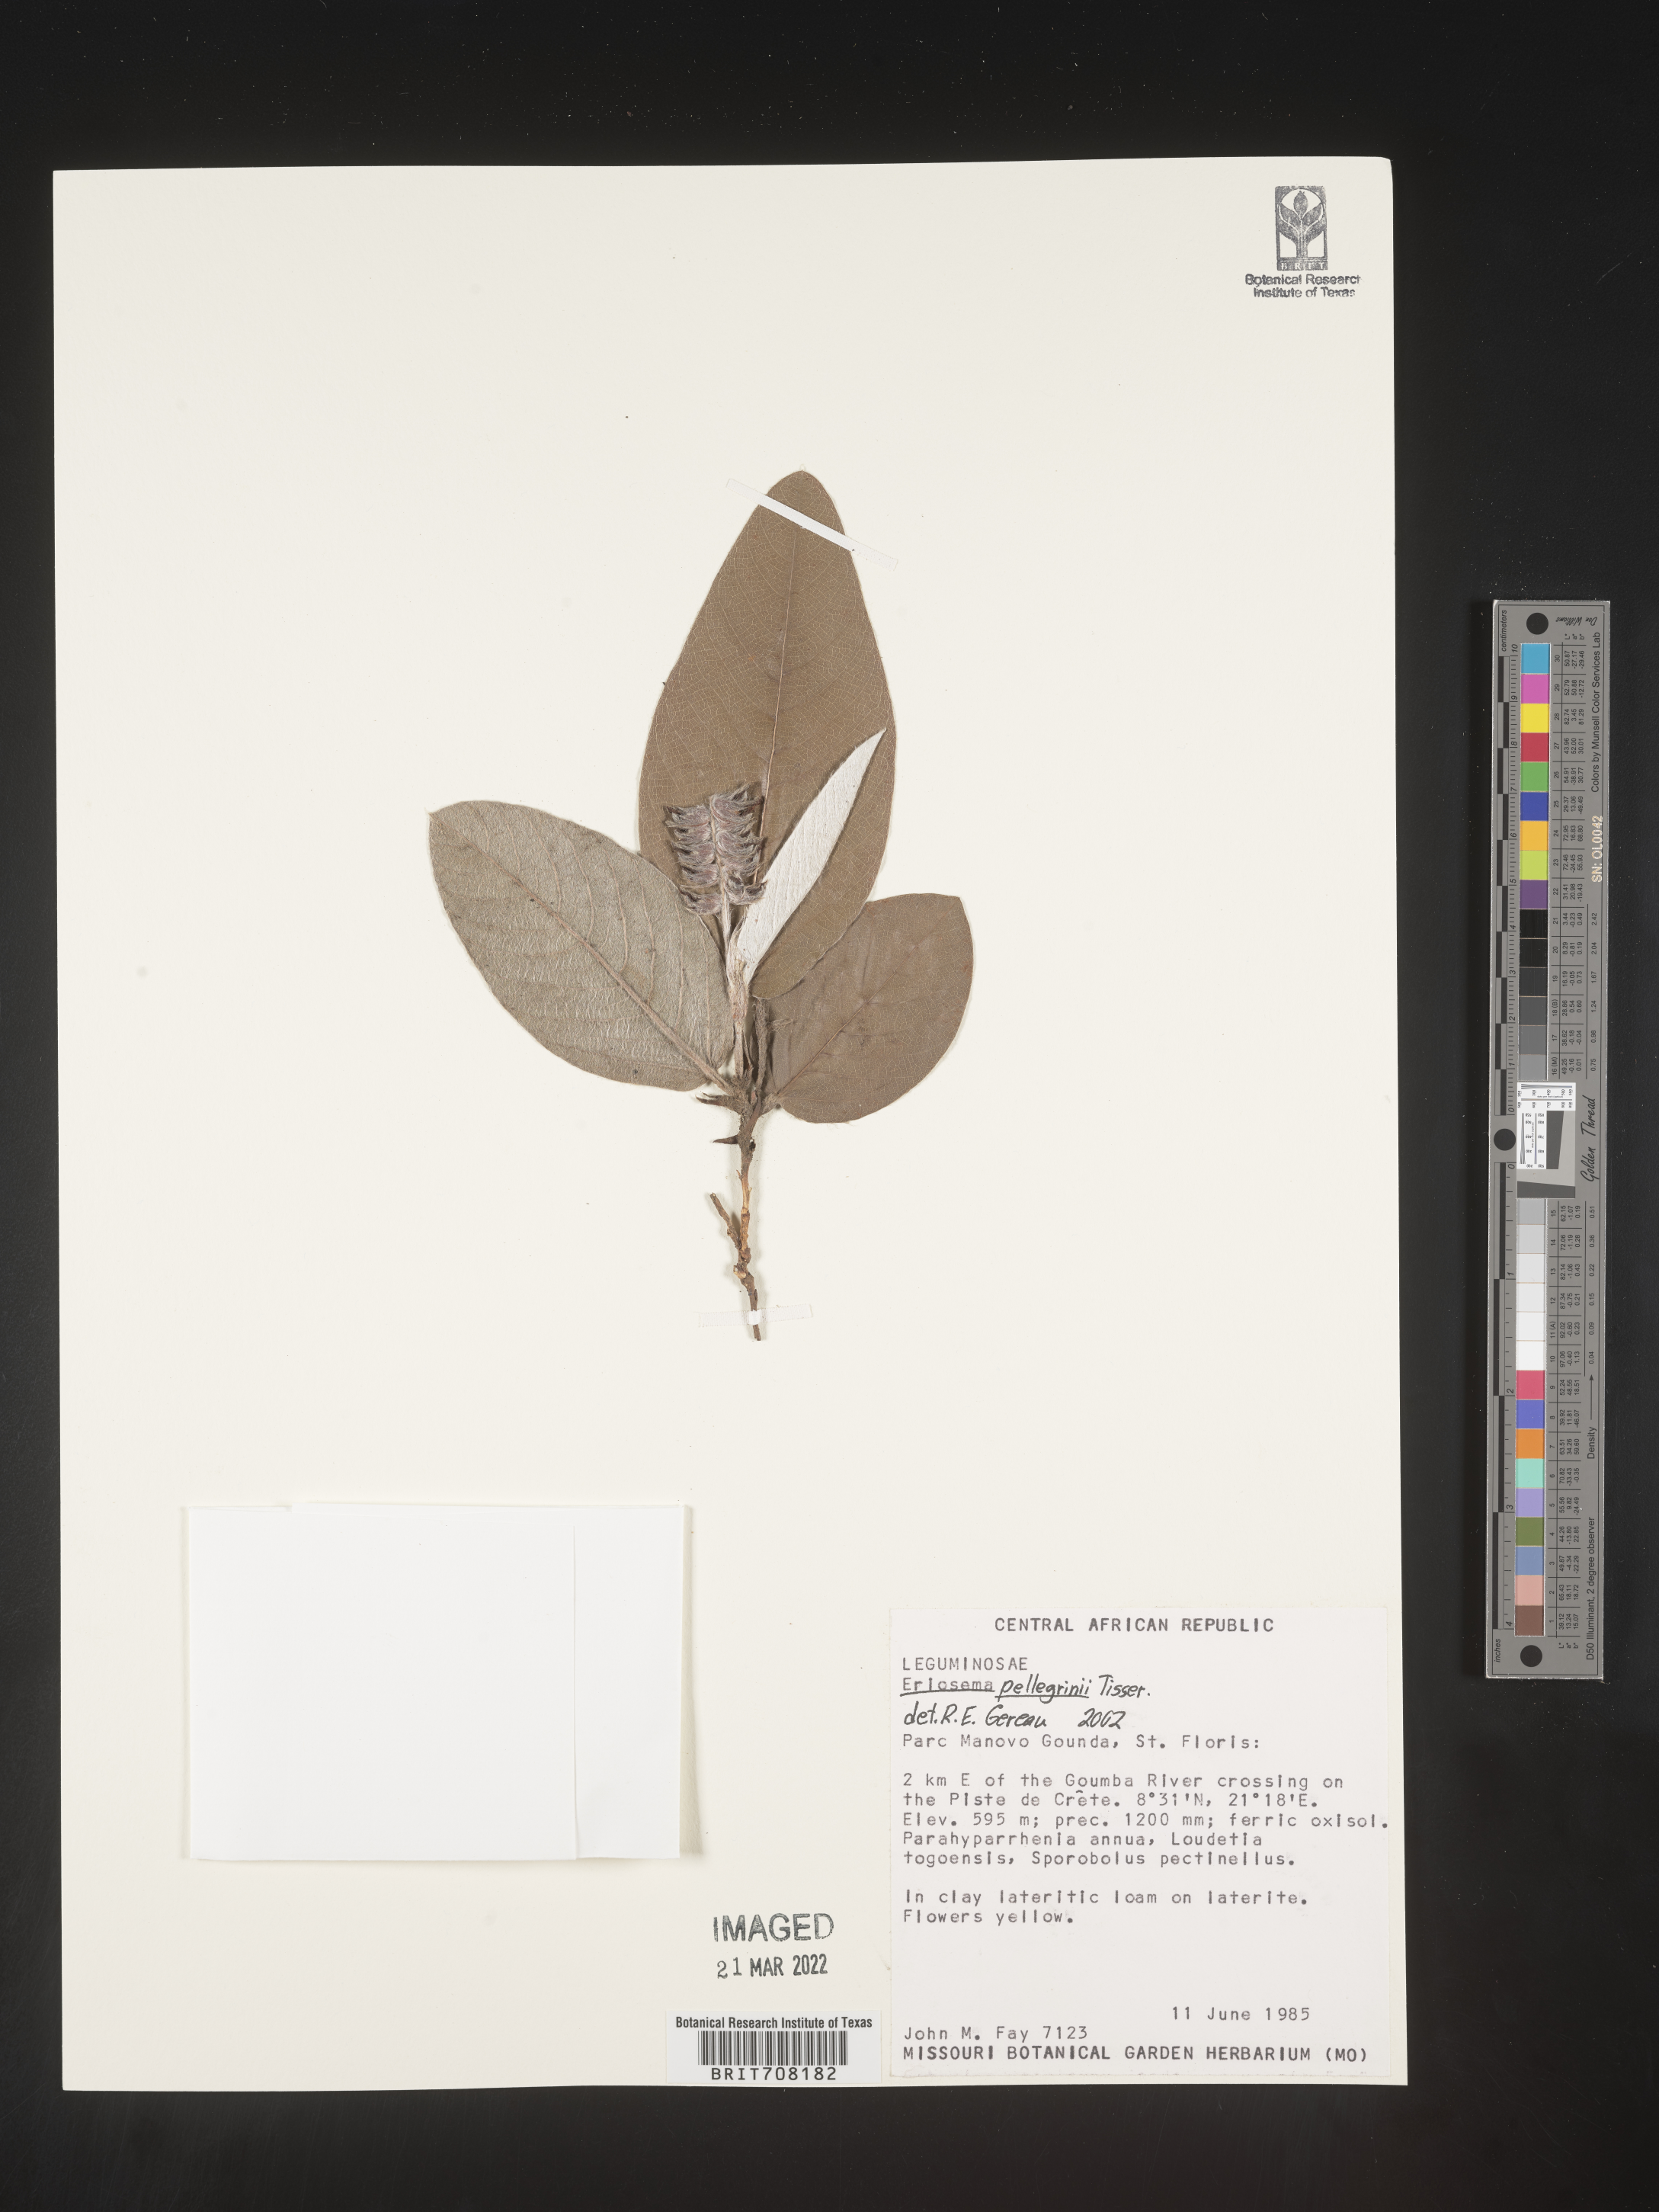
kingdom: Plantae
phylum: Tracheophyta
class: Magnoliopsida
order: Fabales
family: Fabaceae
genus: Eriosema
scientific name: Eriosema
